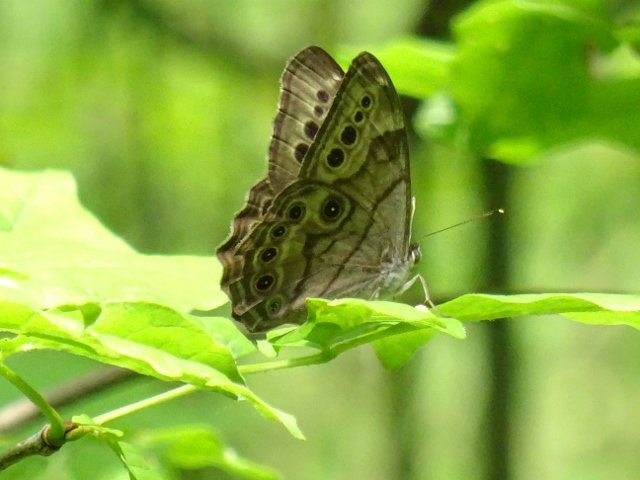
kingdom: Animalia
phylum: Arthropoda
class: Insecta
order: Lepidoptera
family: Nymphalidae
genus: Lethe
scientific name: Lethe anthedon
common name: Northern Pearly-Eye
